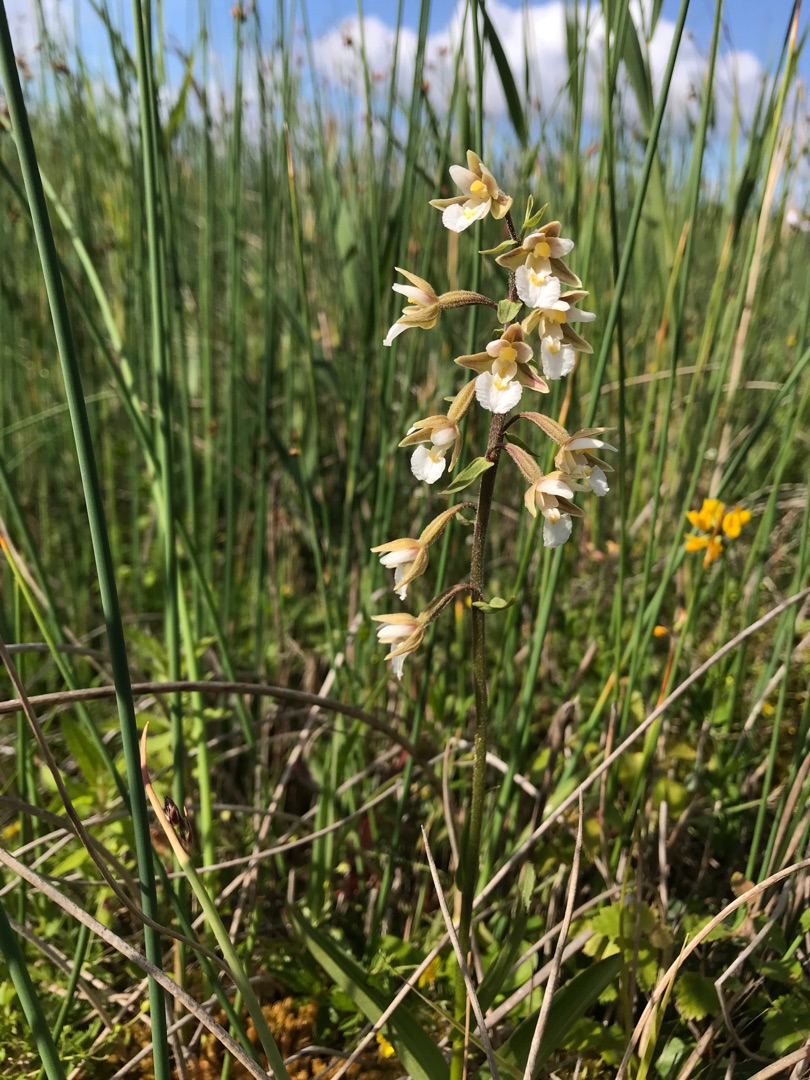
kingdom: Plantae
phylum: Tracheophyta
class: Liliopsida
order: Asparagales
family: Orchidaceae
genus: Epipactis
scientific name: Epipactis palustris
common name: Sump-hullæbe
